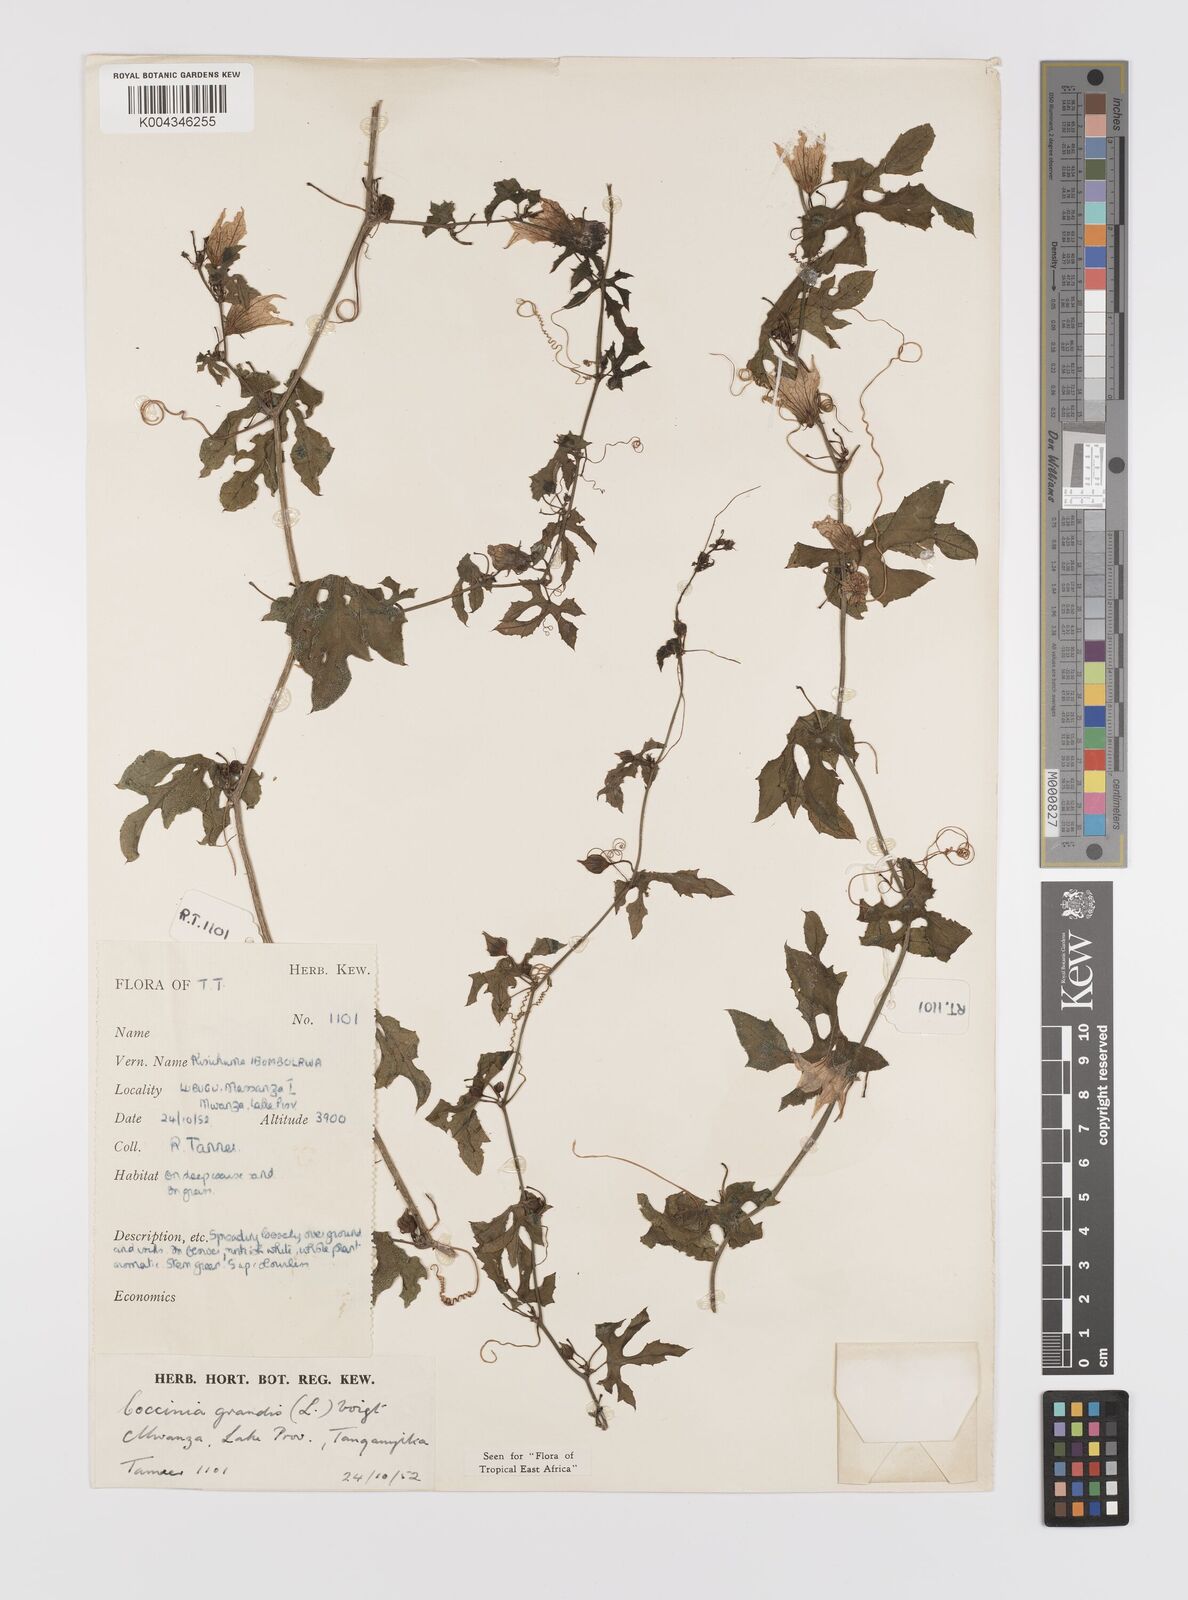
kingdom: Plantae
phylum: Tracheophyta
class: Magnoliopsida
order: Cucurbitales
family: Cucurbitaceae
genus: Coccinia
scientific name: Coccinia grandis
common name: Ivy gourd
